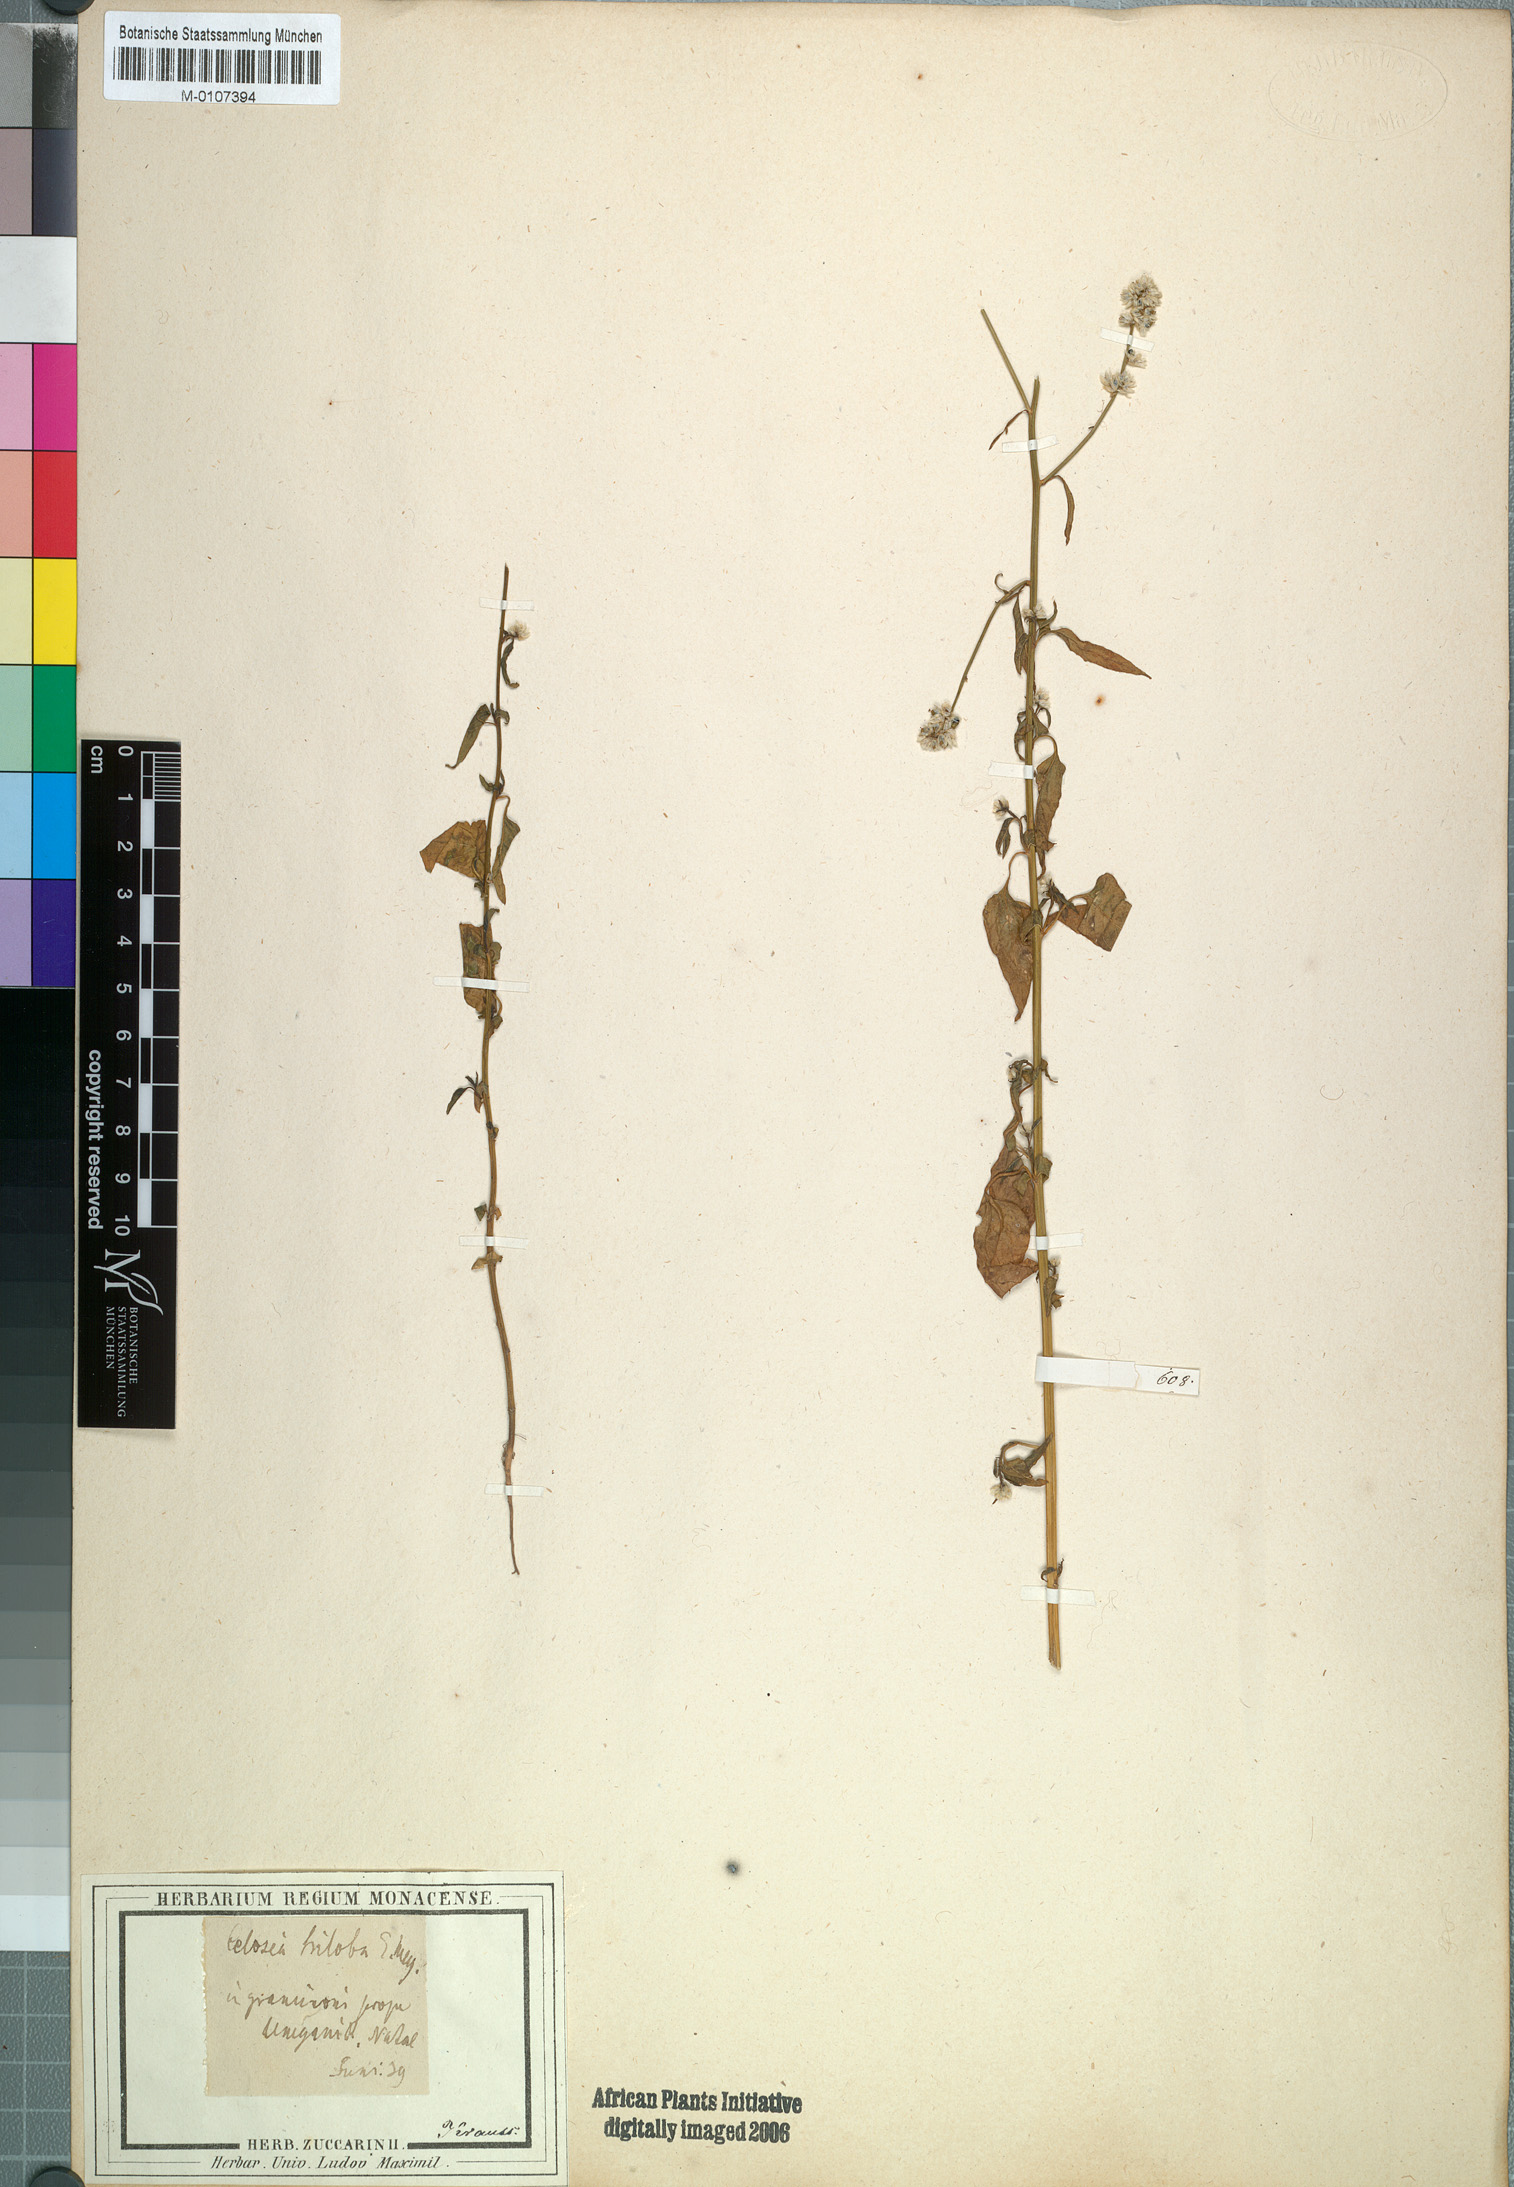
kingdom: Plantae
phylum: Tracheophyta
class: Magnoliopsida
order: Caryophyllales
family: Amaranthaceae
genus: Celosia
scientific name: Celosia trigyna
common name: Woolflower
